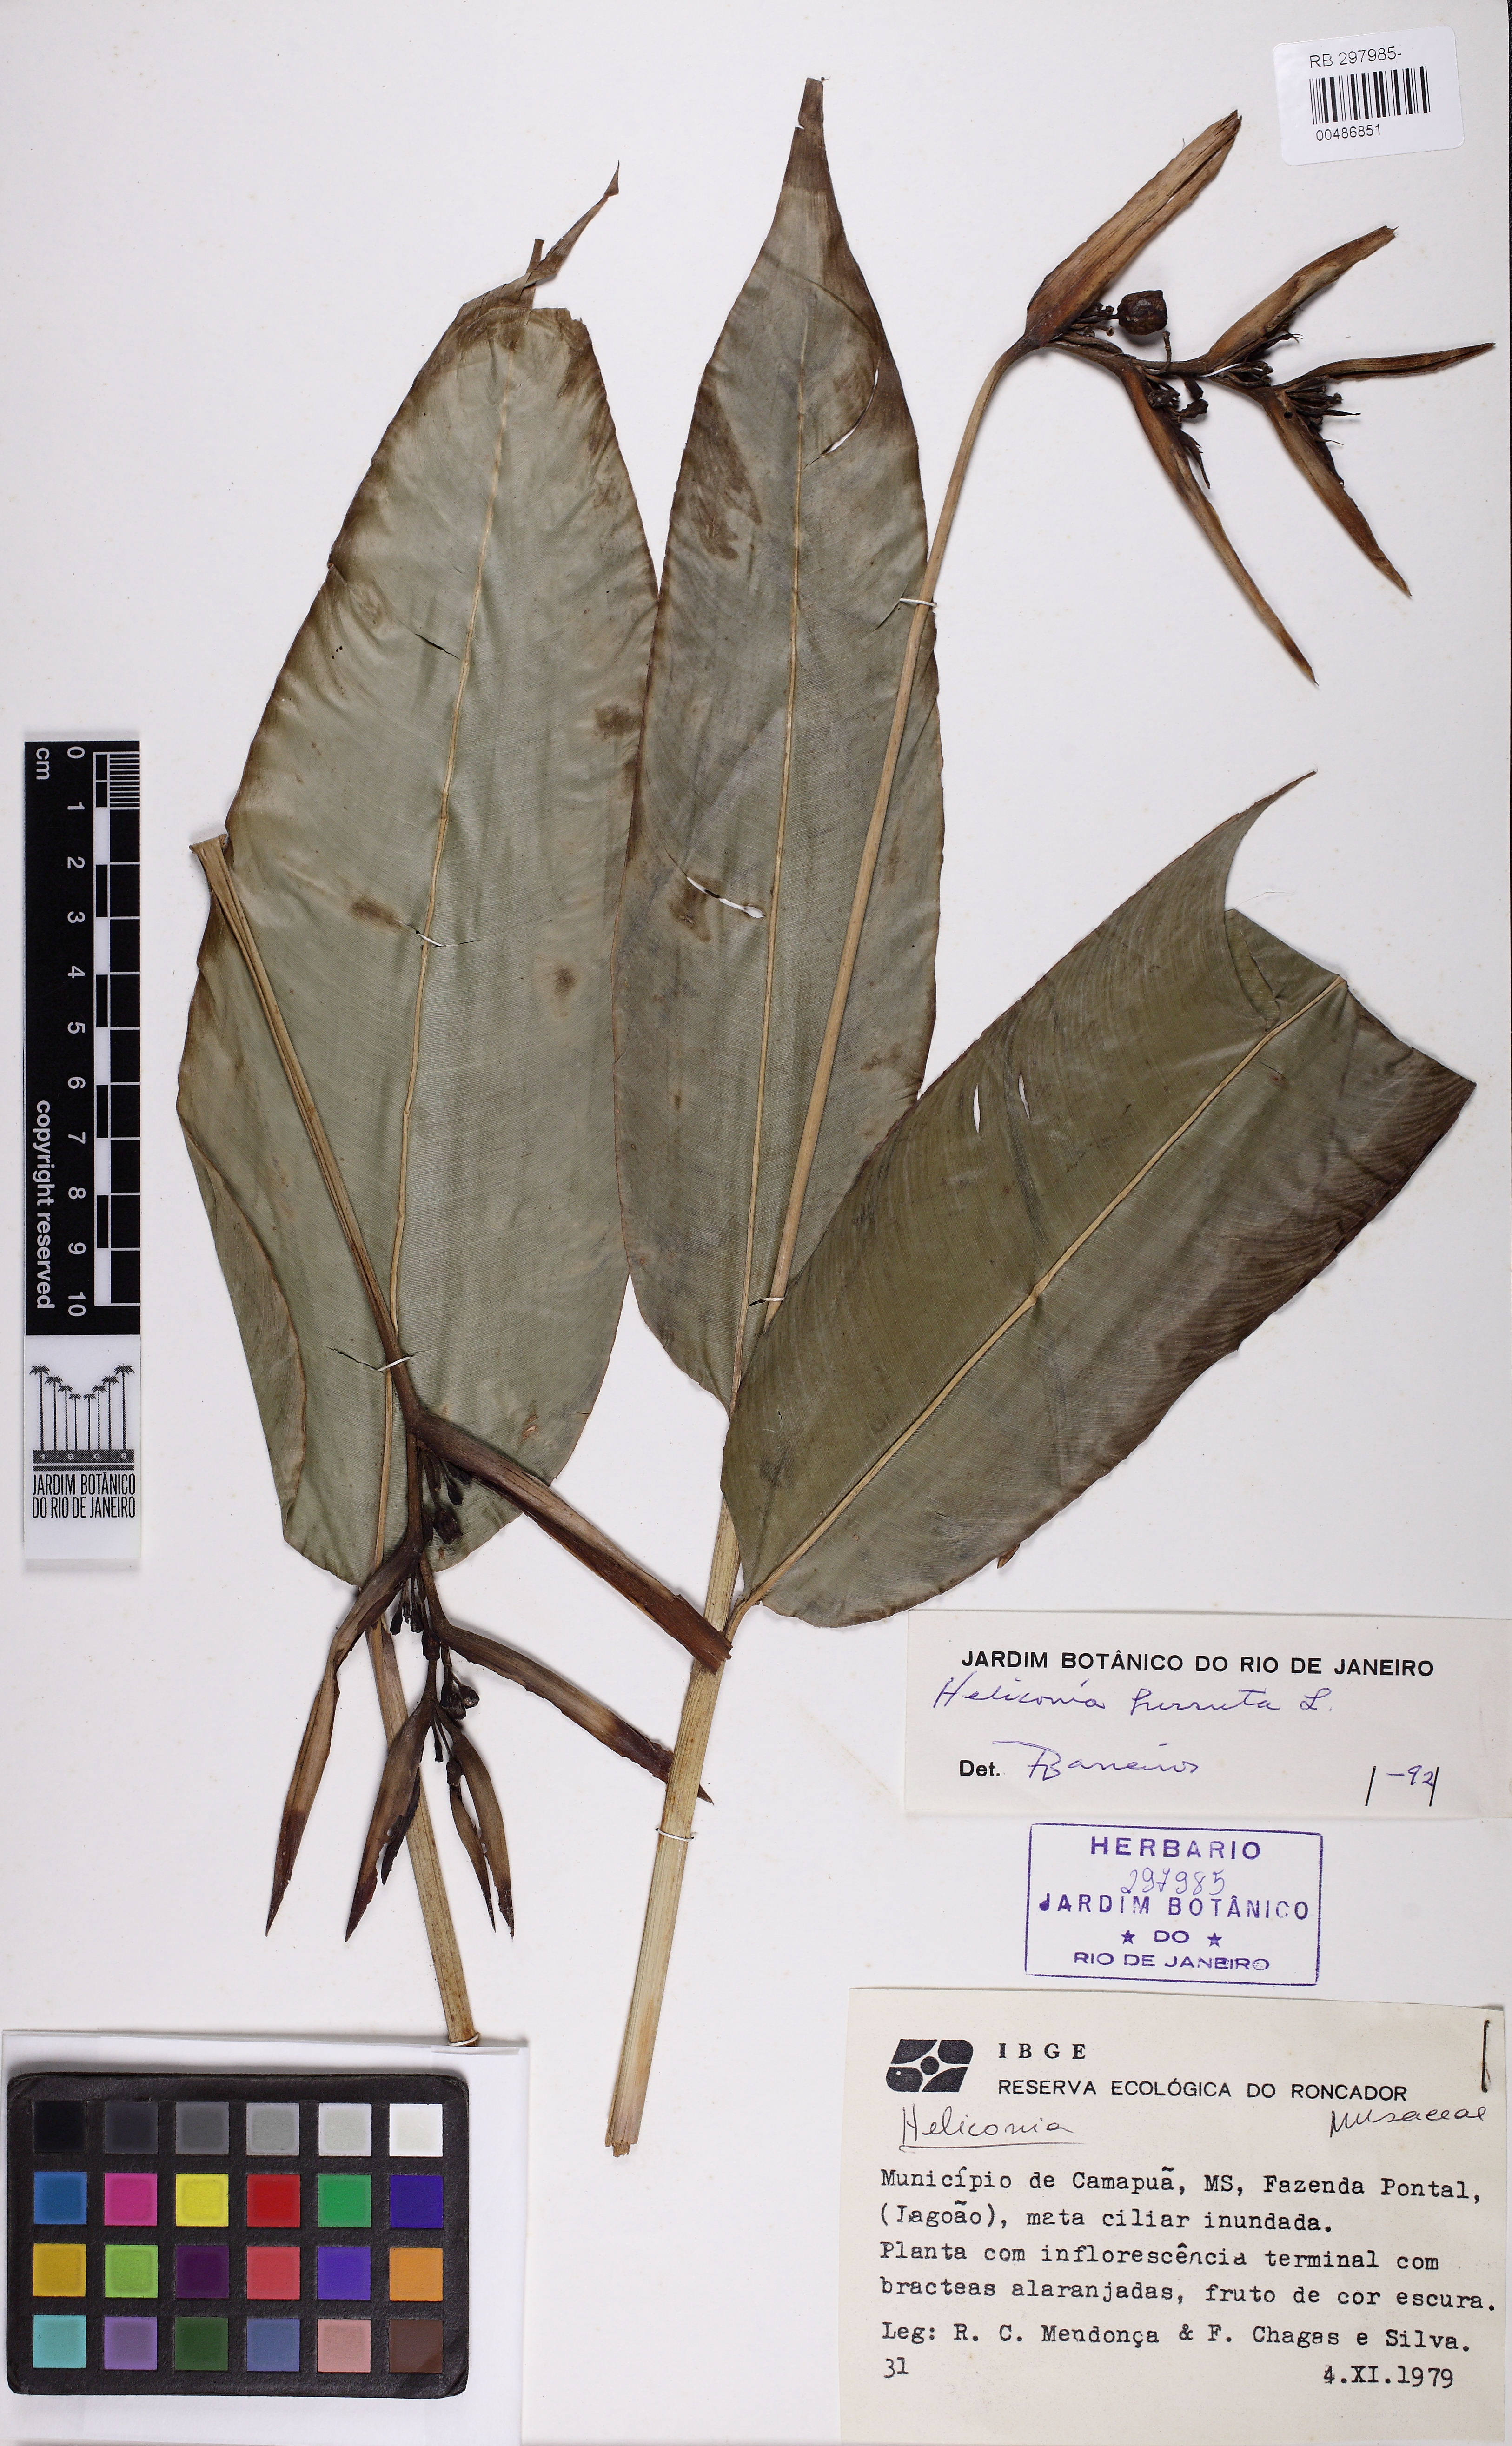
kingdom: Plantae
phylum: Tracheophyta
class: Liliopsida
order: Zingiberales
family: Heliconiaceae
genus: Heliconia
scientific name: Heliconia hirsuta
